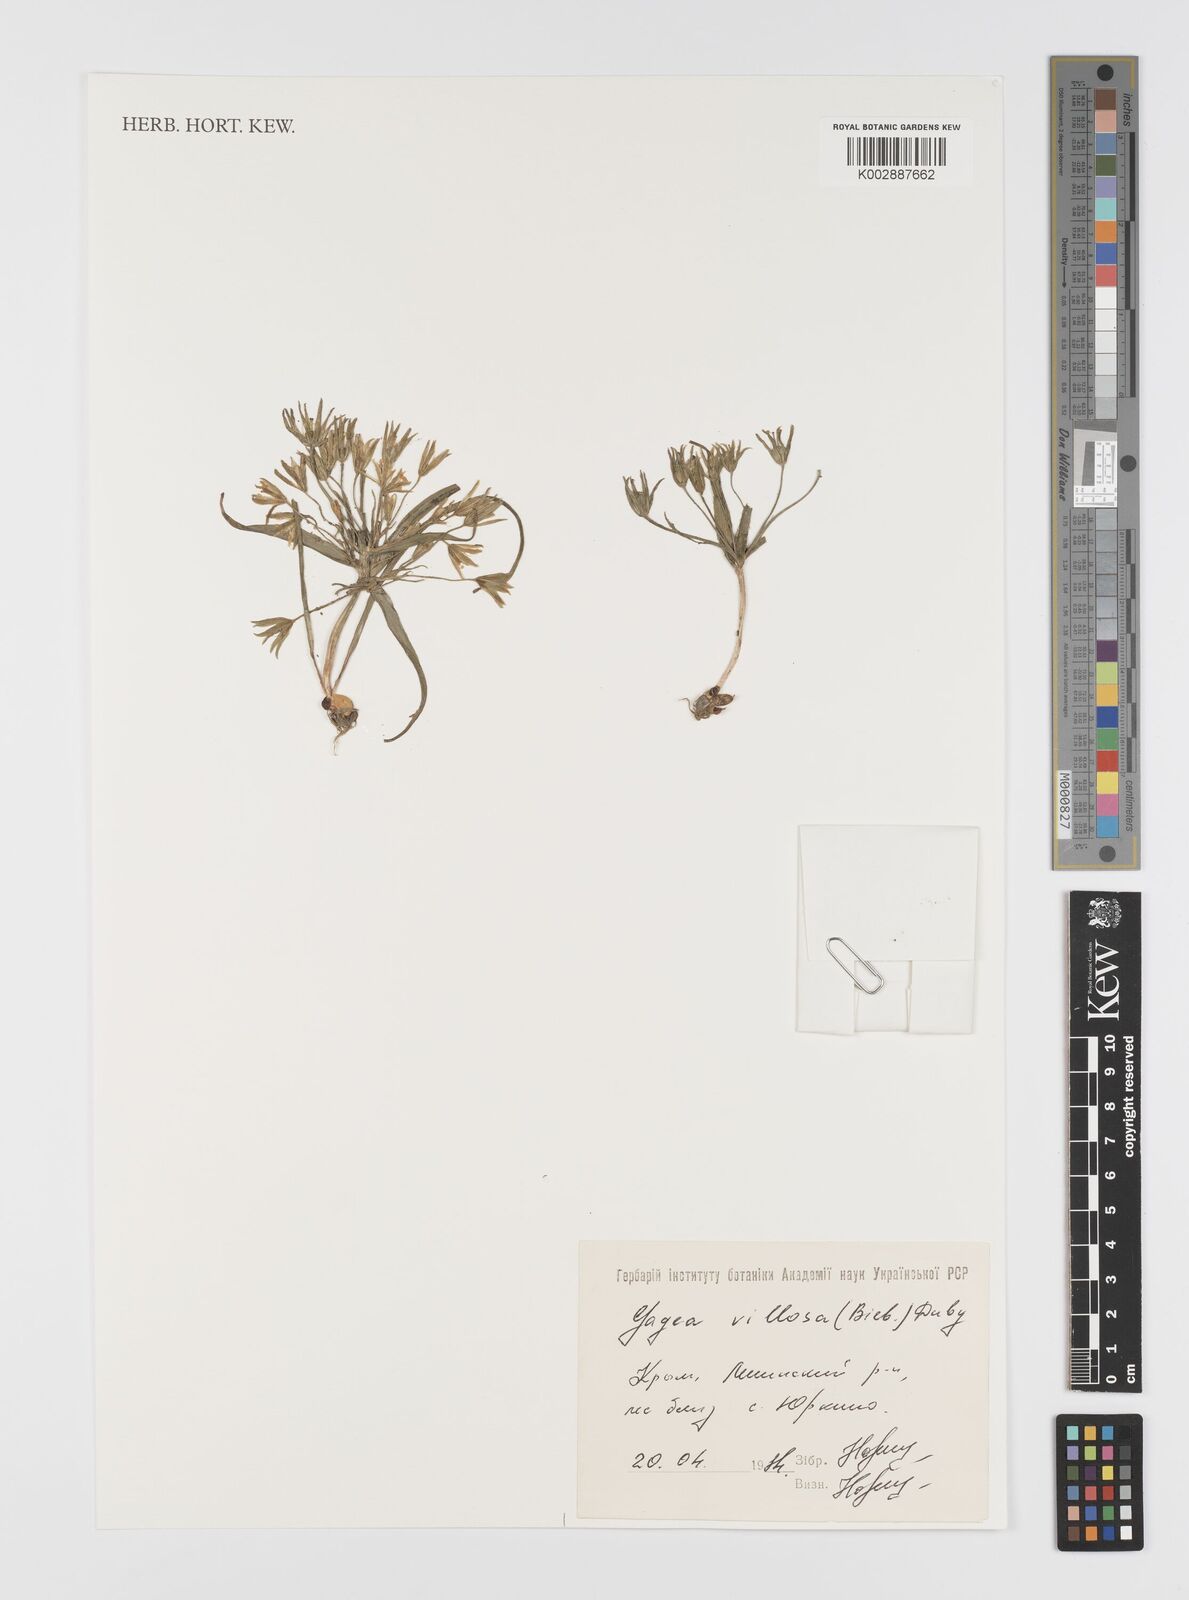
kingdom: Plantae
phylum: Tracheophyta
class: Liliopsida
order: Liliales
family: Liliaceae
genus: Gagea
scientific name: Gagea villosa
